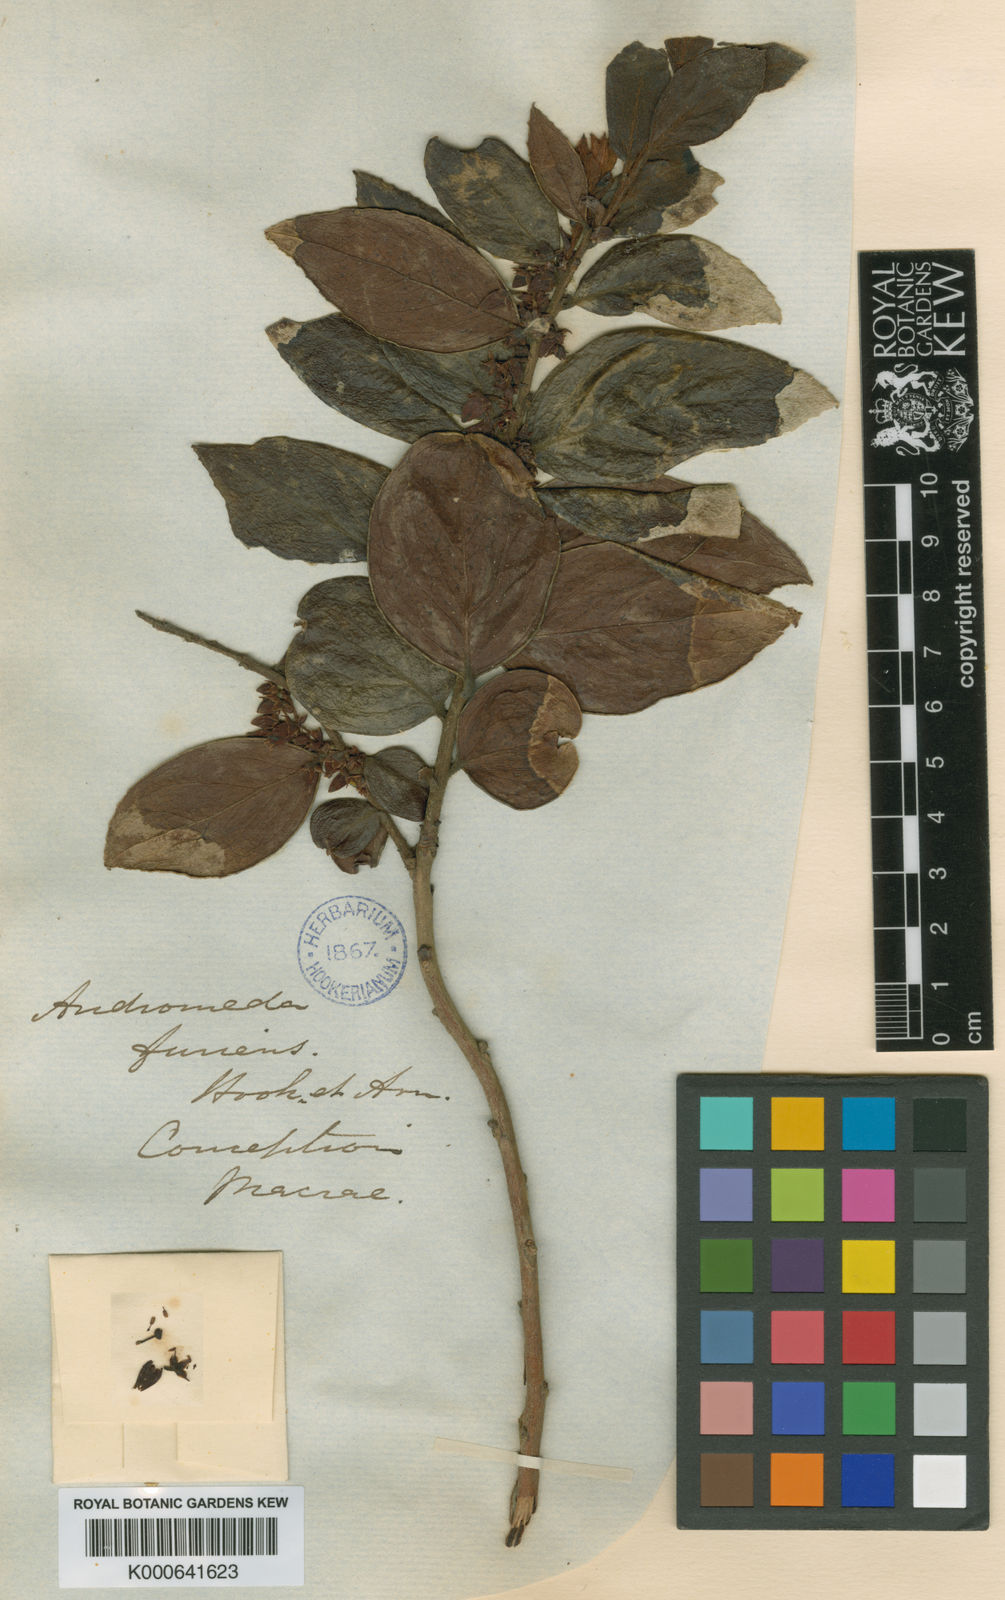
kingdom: Plantae
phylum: Tracheophyta
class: Magnoliopsida
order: Ericales
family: Ericaceae
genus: Gaultheria
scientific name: Gaultheria insana
